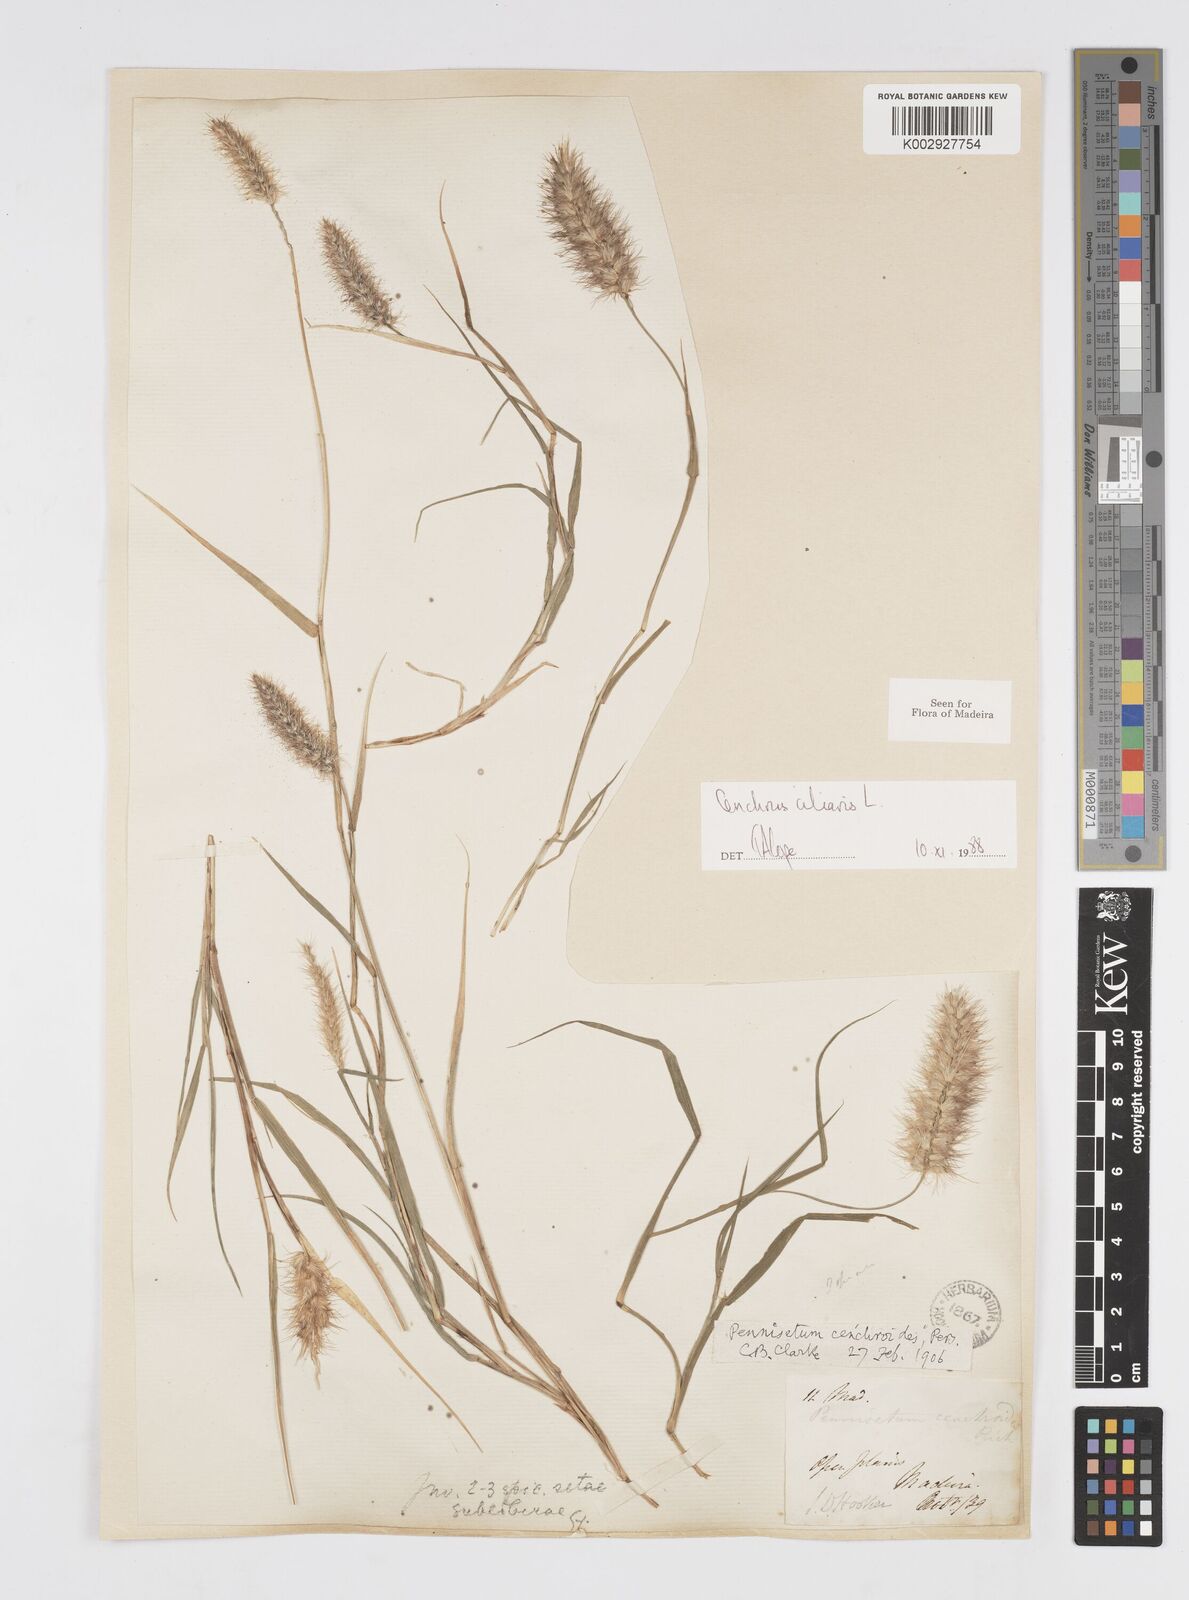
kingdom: Plantae
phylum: Tracheophyta
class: Liliopsida
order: Poales
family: Poaceae
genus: Cenchrus
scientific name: Cenchrus ciliaris
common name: Buffelgrass
